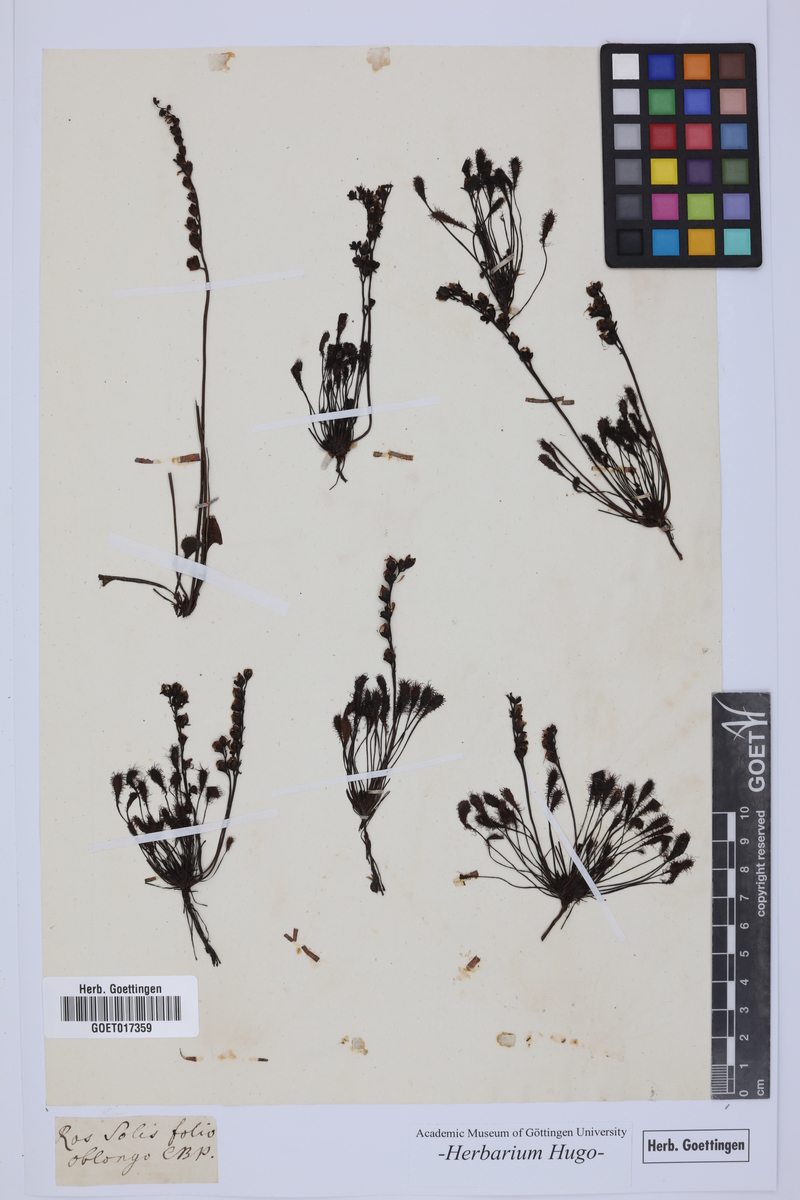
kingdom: Plantae
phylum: Tracheophyta
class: Magnoliopsida
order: Caryophyllales
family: Droseraceae
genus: Drosera
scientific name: Drosera anglica
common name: Great sundew
